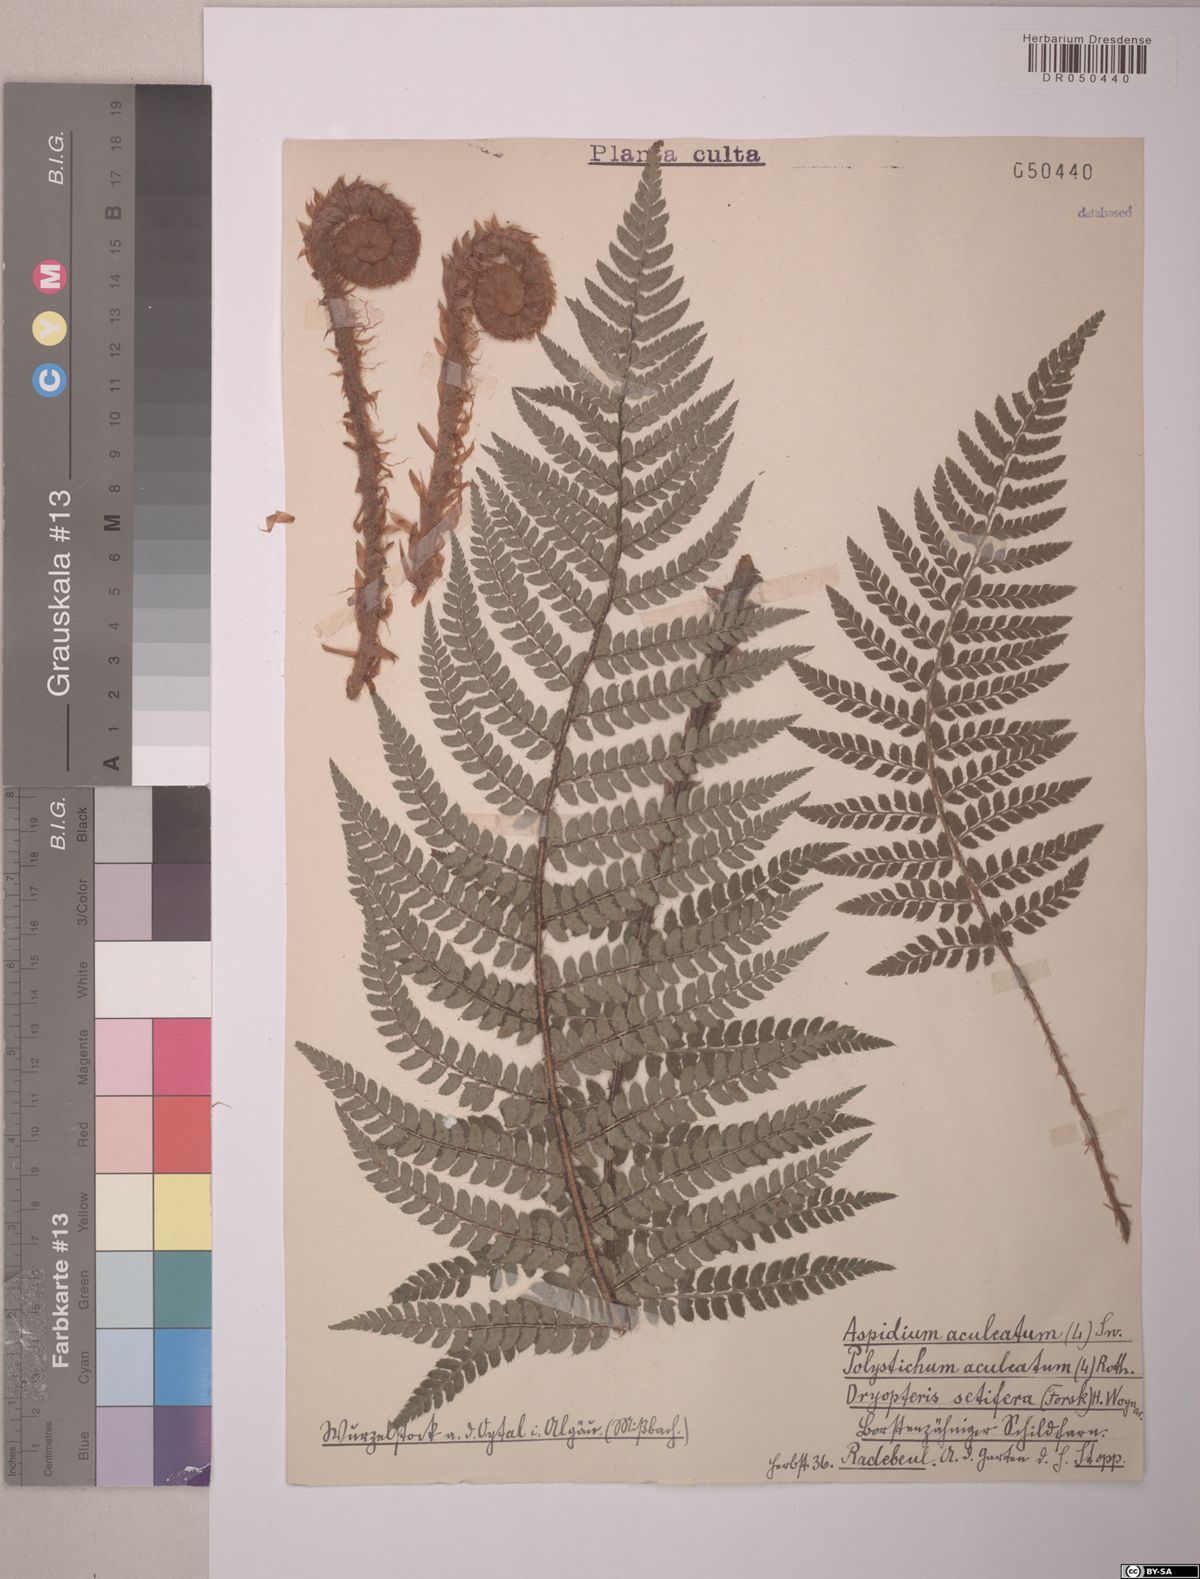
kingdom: Plantae
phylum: Tracheophyta
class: Polypodiopsida
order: Polypodiales
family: Dryopteridaceae
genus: Polystichum
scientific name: Polystichum aculeatum
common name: Hard shield-fern
